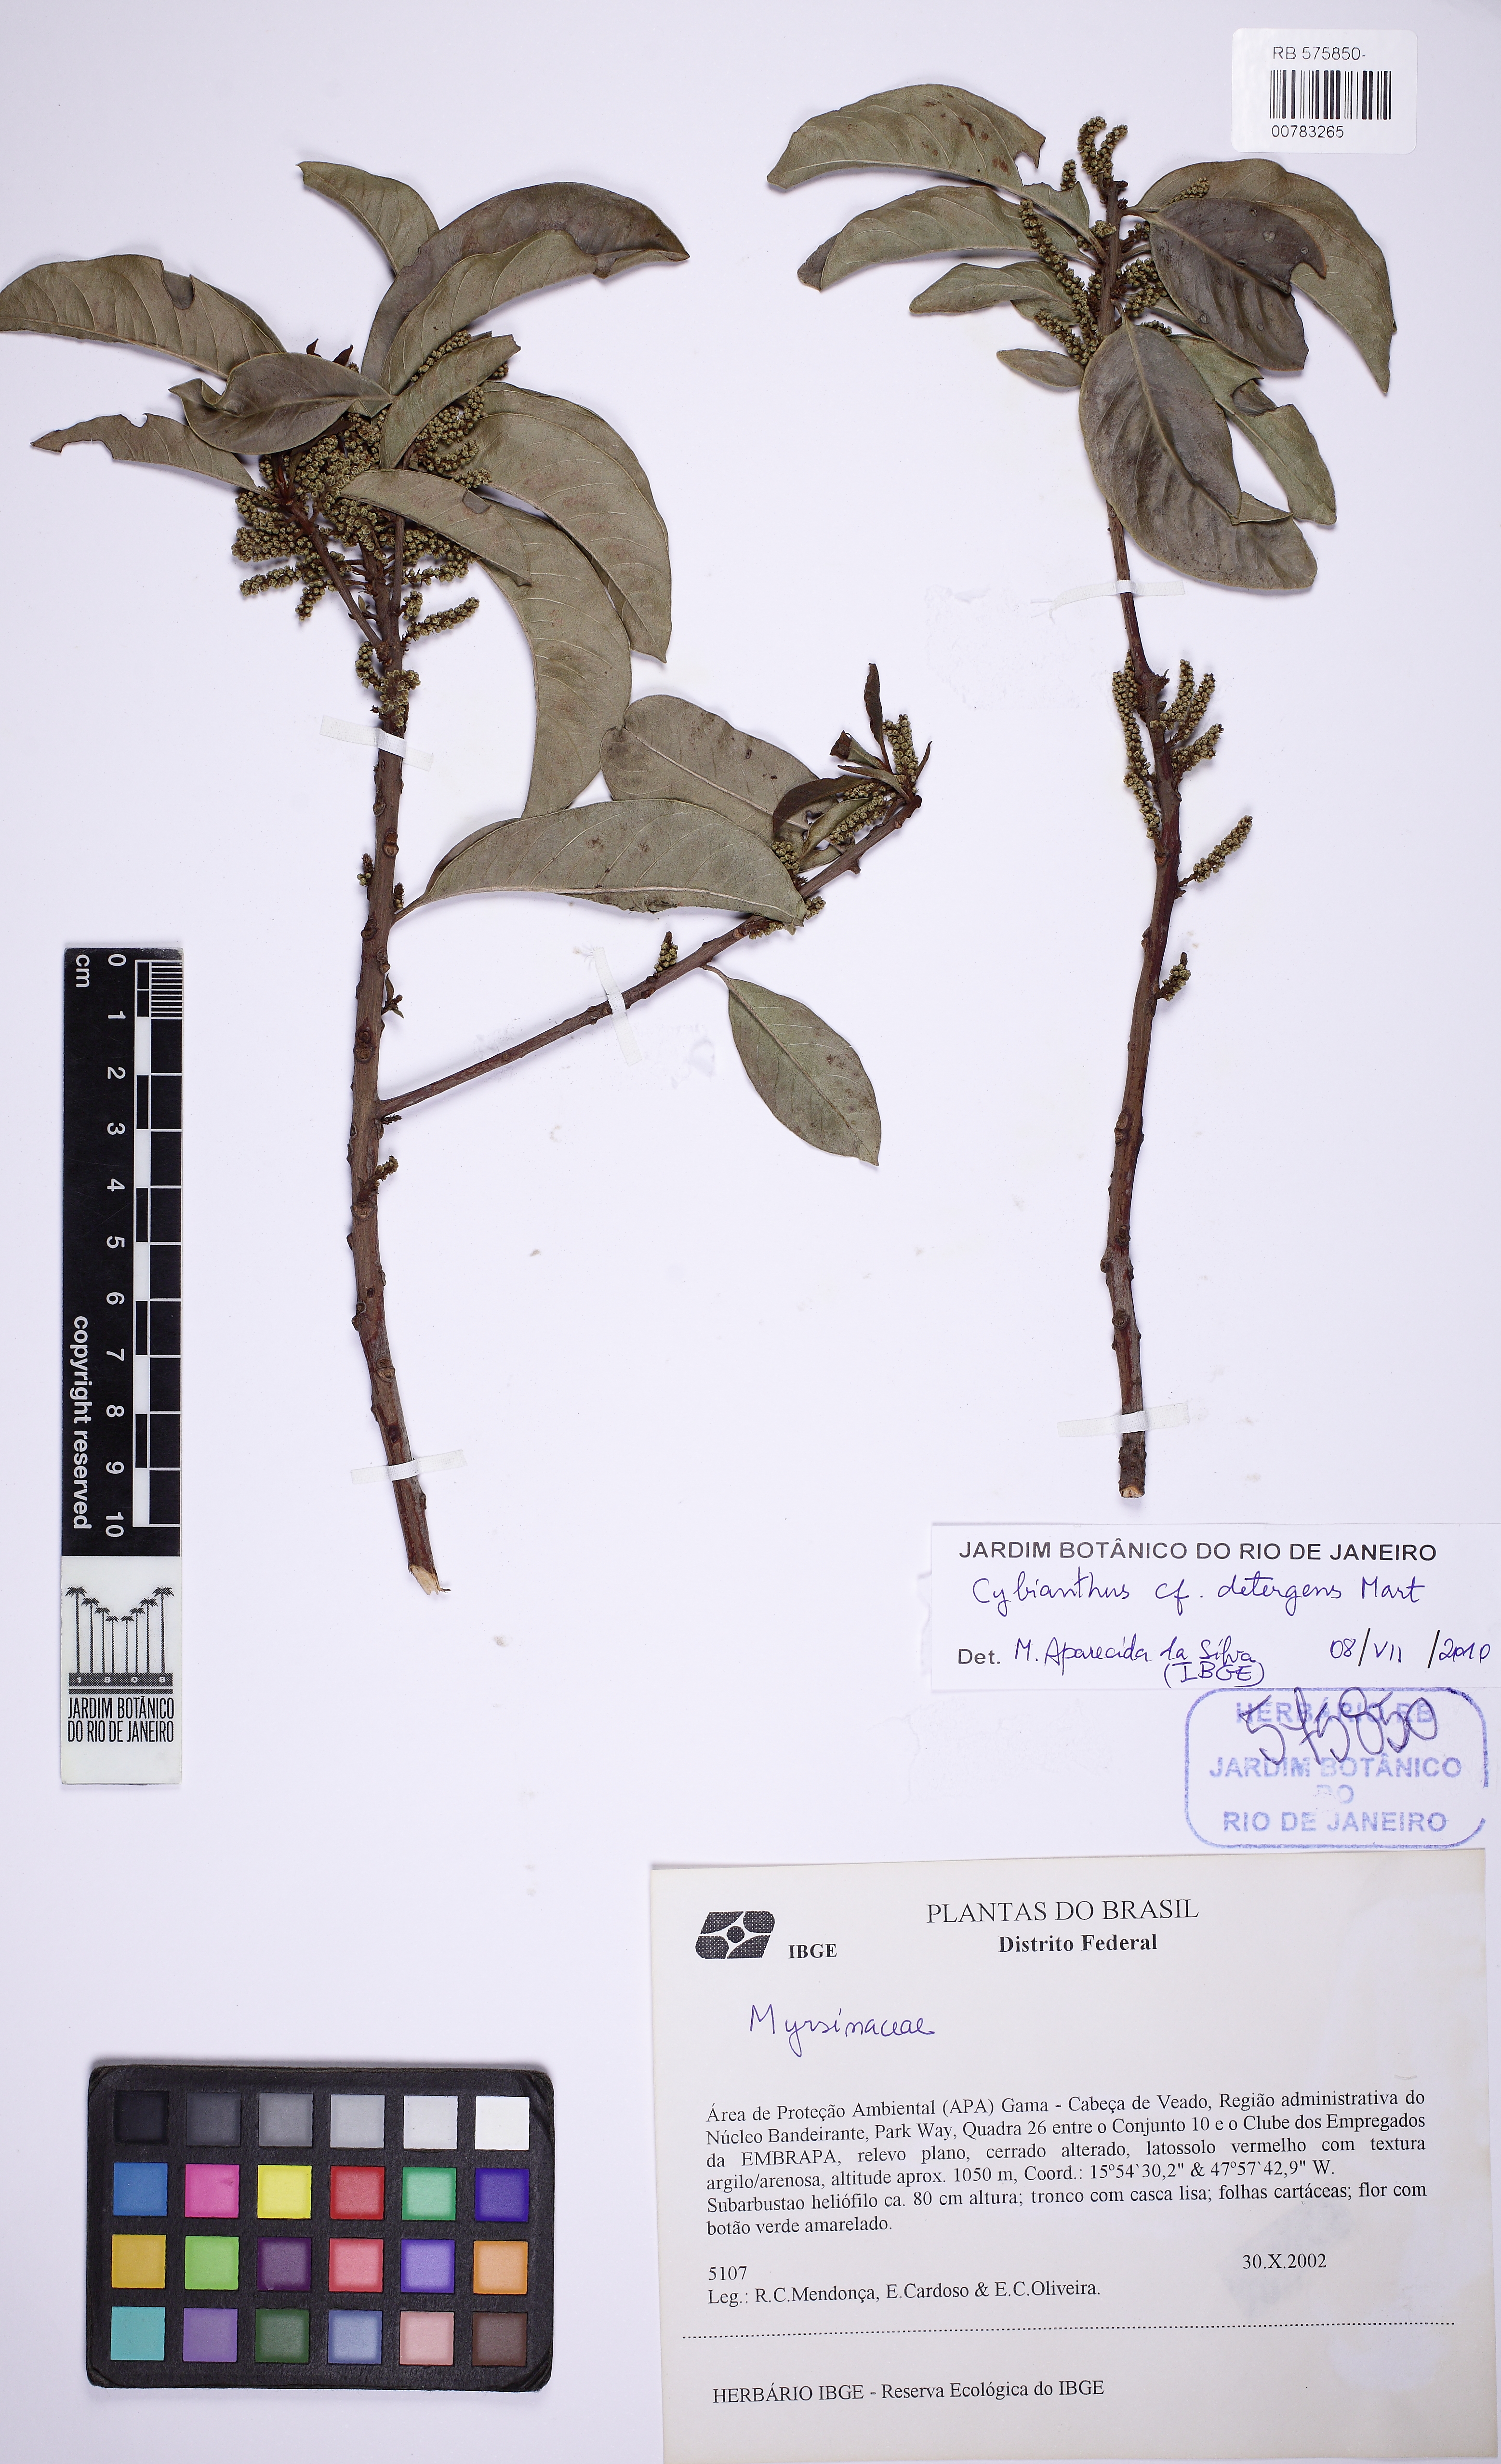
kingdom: Plantae
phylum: Tracheophyta
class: Magnoliopsida
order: Ericales
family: Primulaceae
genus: Cybianthus
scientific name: Cybianthus detergens
